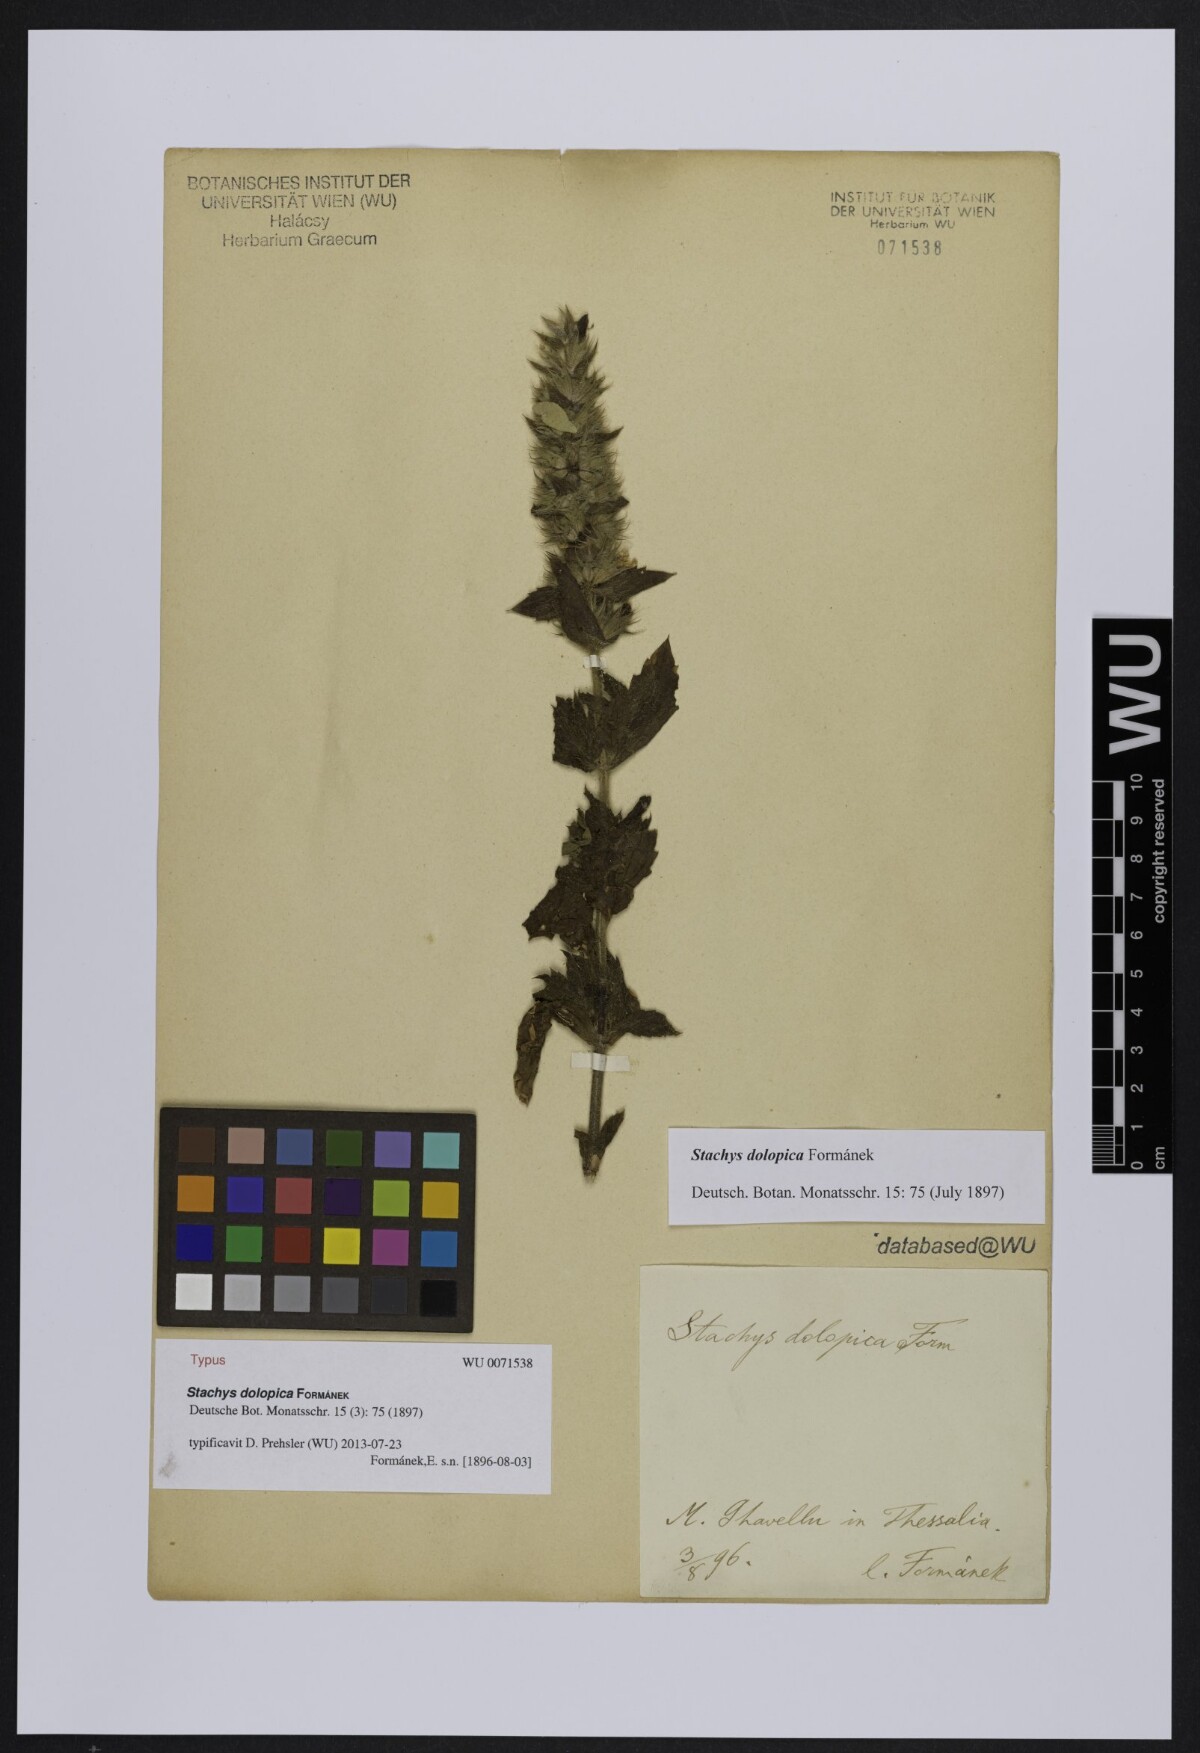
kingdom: Plantae
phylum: Tracheophyta
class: Magnoliopsida
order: Lamiales
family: Lamiaceae
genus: Stachys
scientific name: Stachys dolopica
